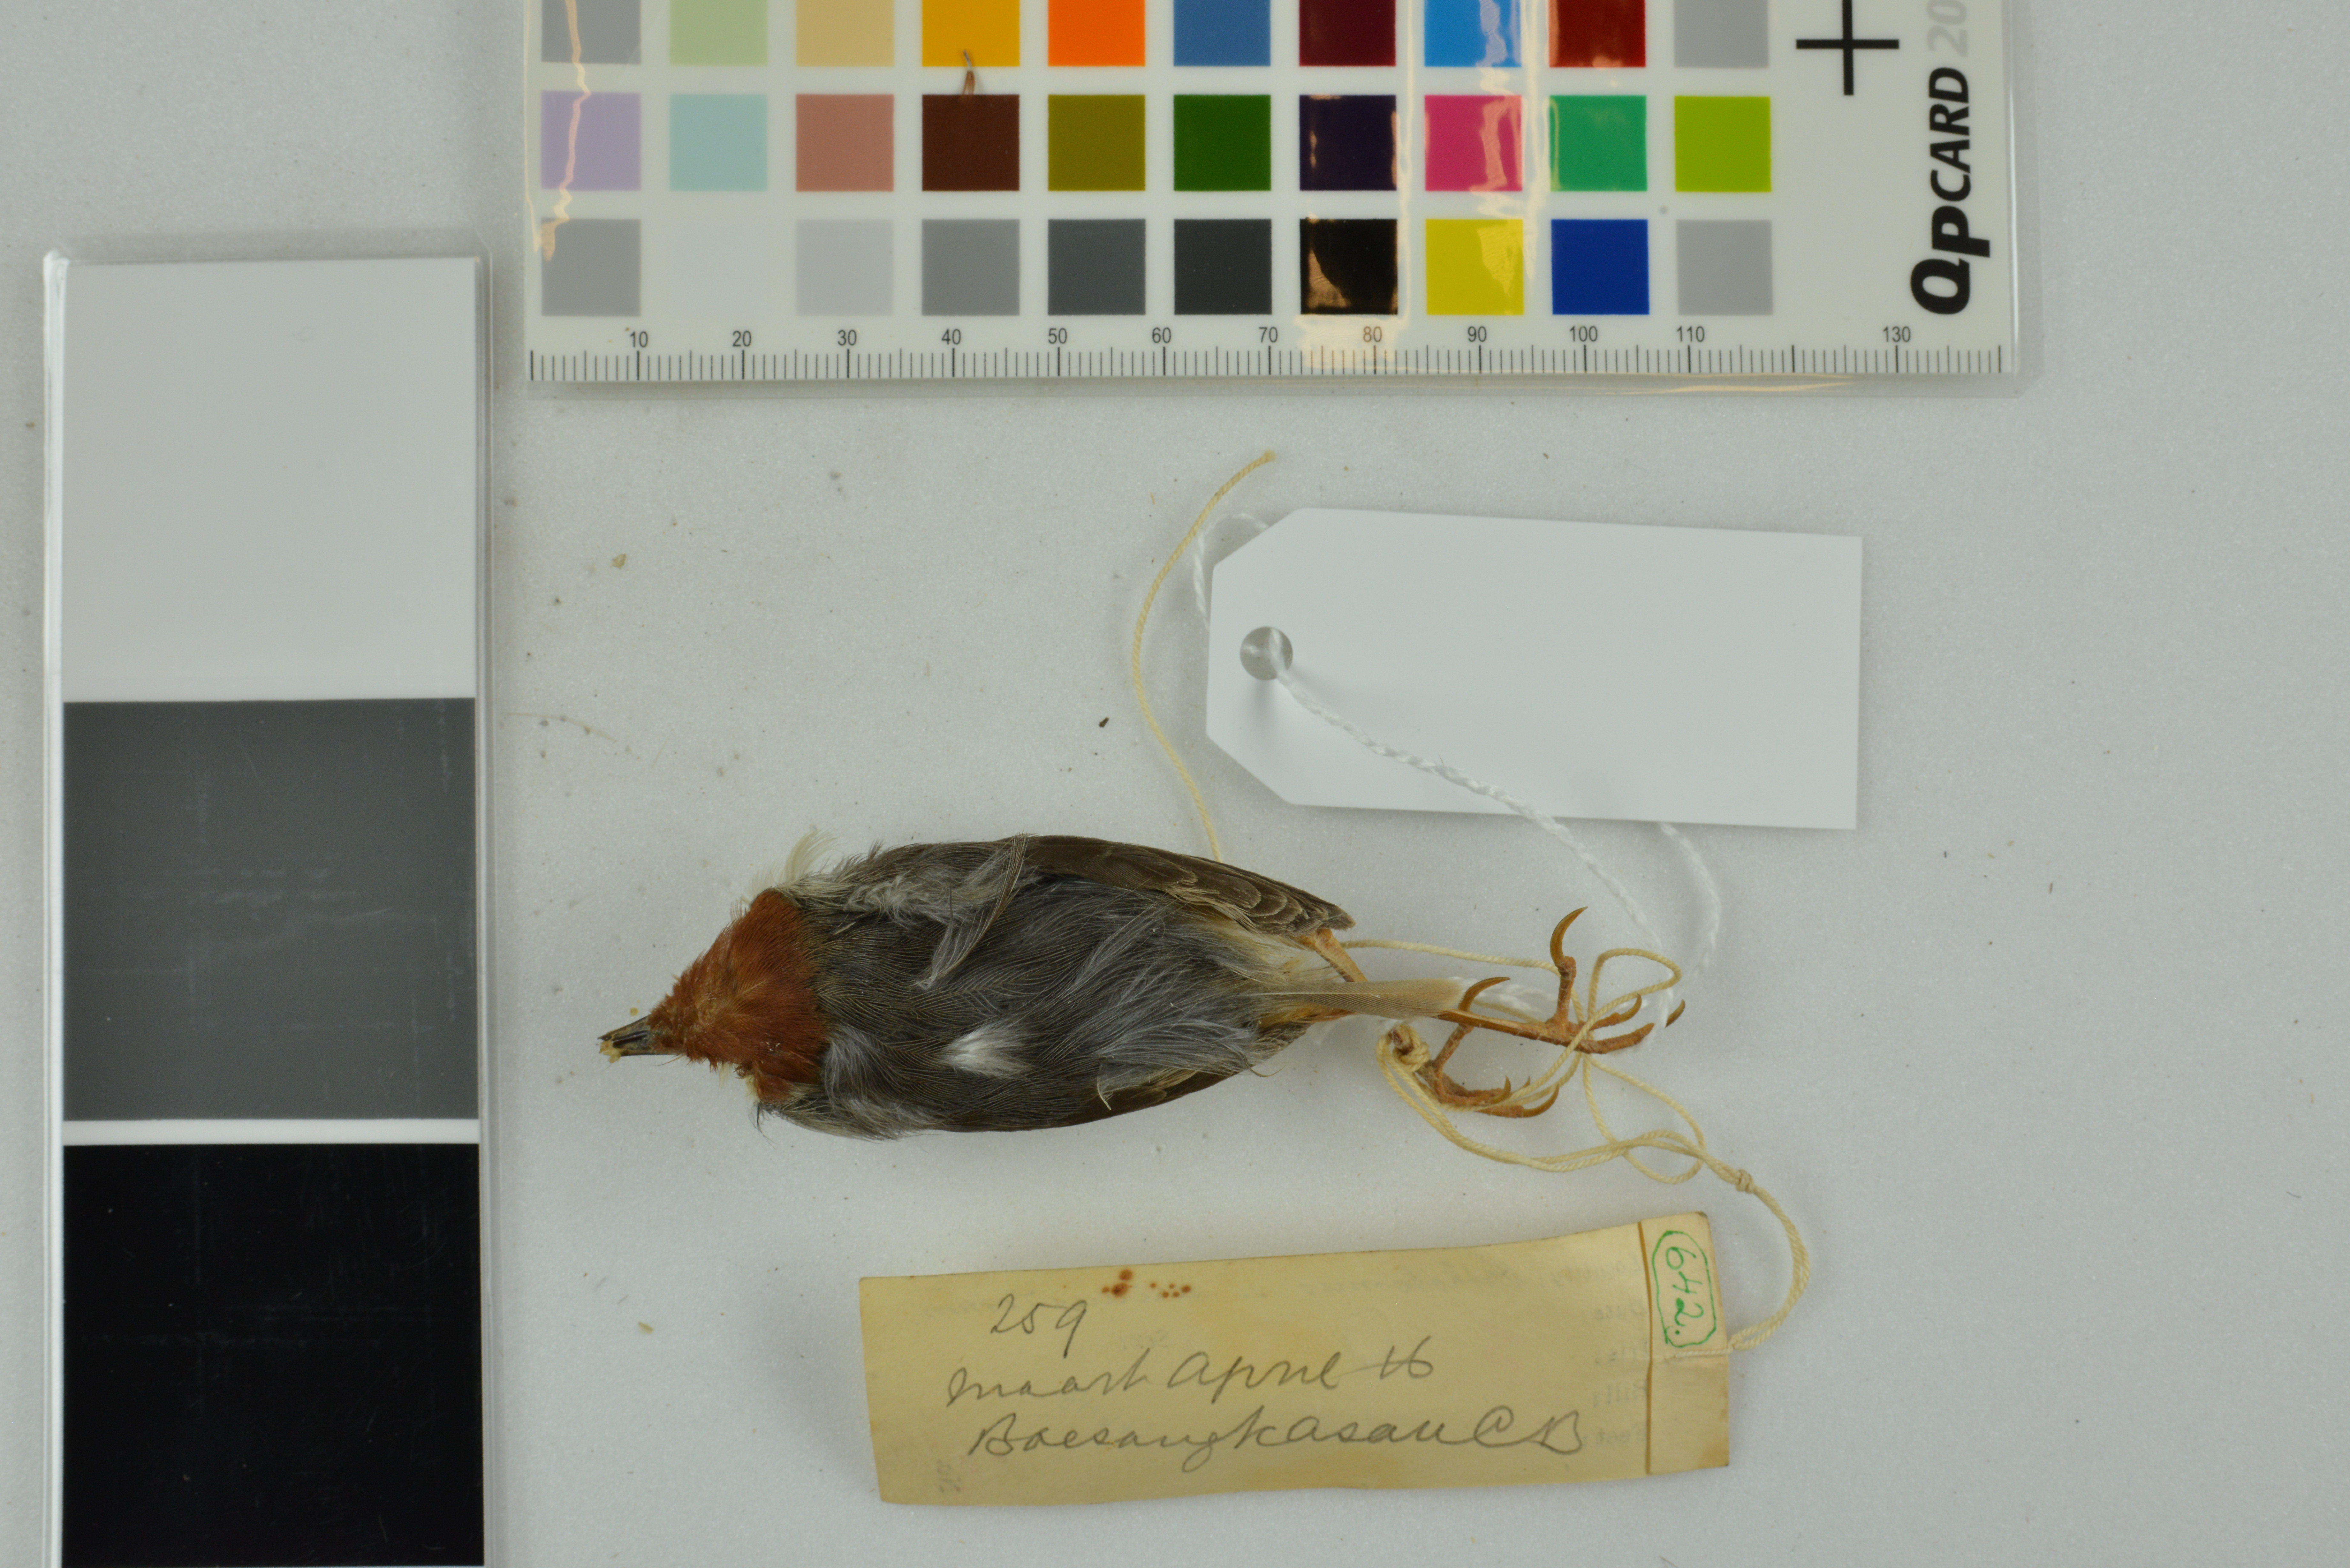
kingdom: Animalia
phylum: Chordata
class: Aves
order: Passeriformes
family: Cisticolidae
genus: Orthotomus
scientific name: Orthotomus sericeus
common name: Rufous-tailed tailorbird
